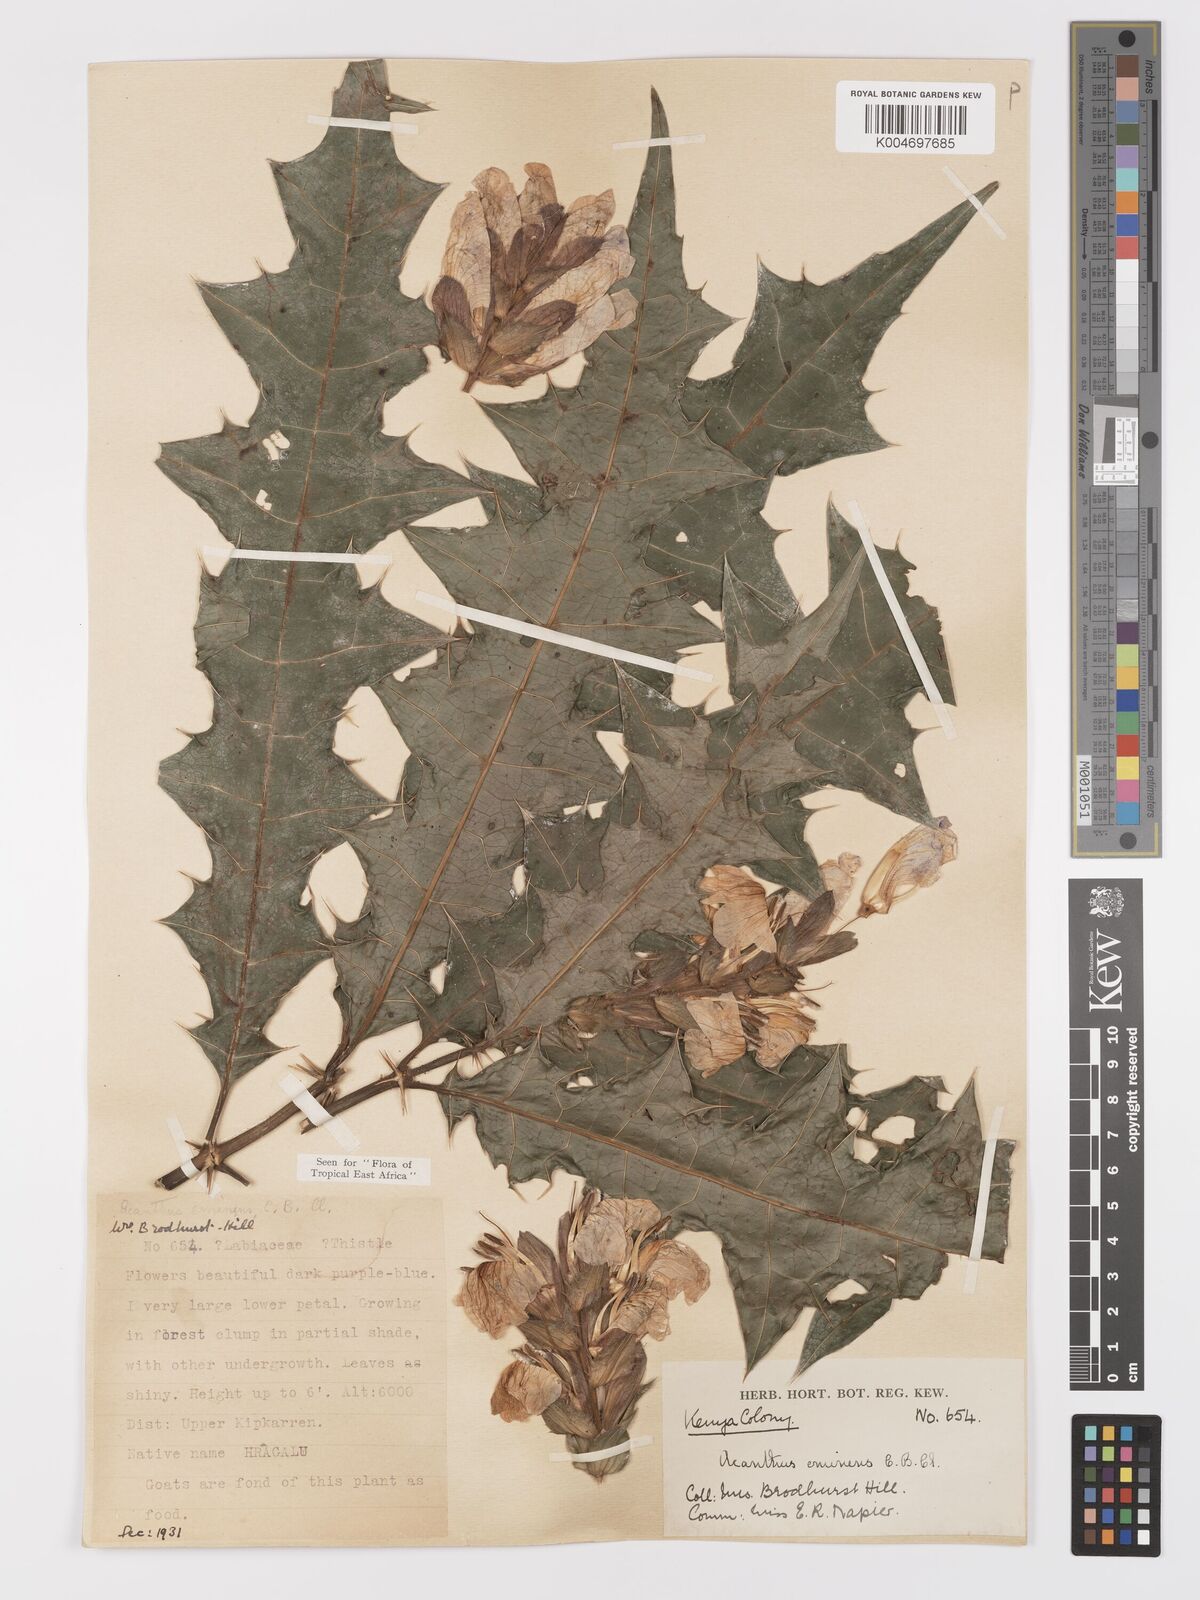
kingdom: Plantae
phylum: Tracheophyta
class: Magnoliopsida
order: Lamiales
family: Acanthaceae
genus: Acanthus
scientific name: Acanthus eminens
